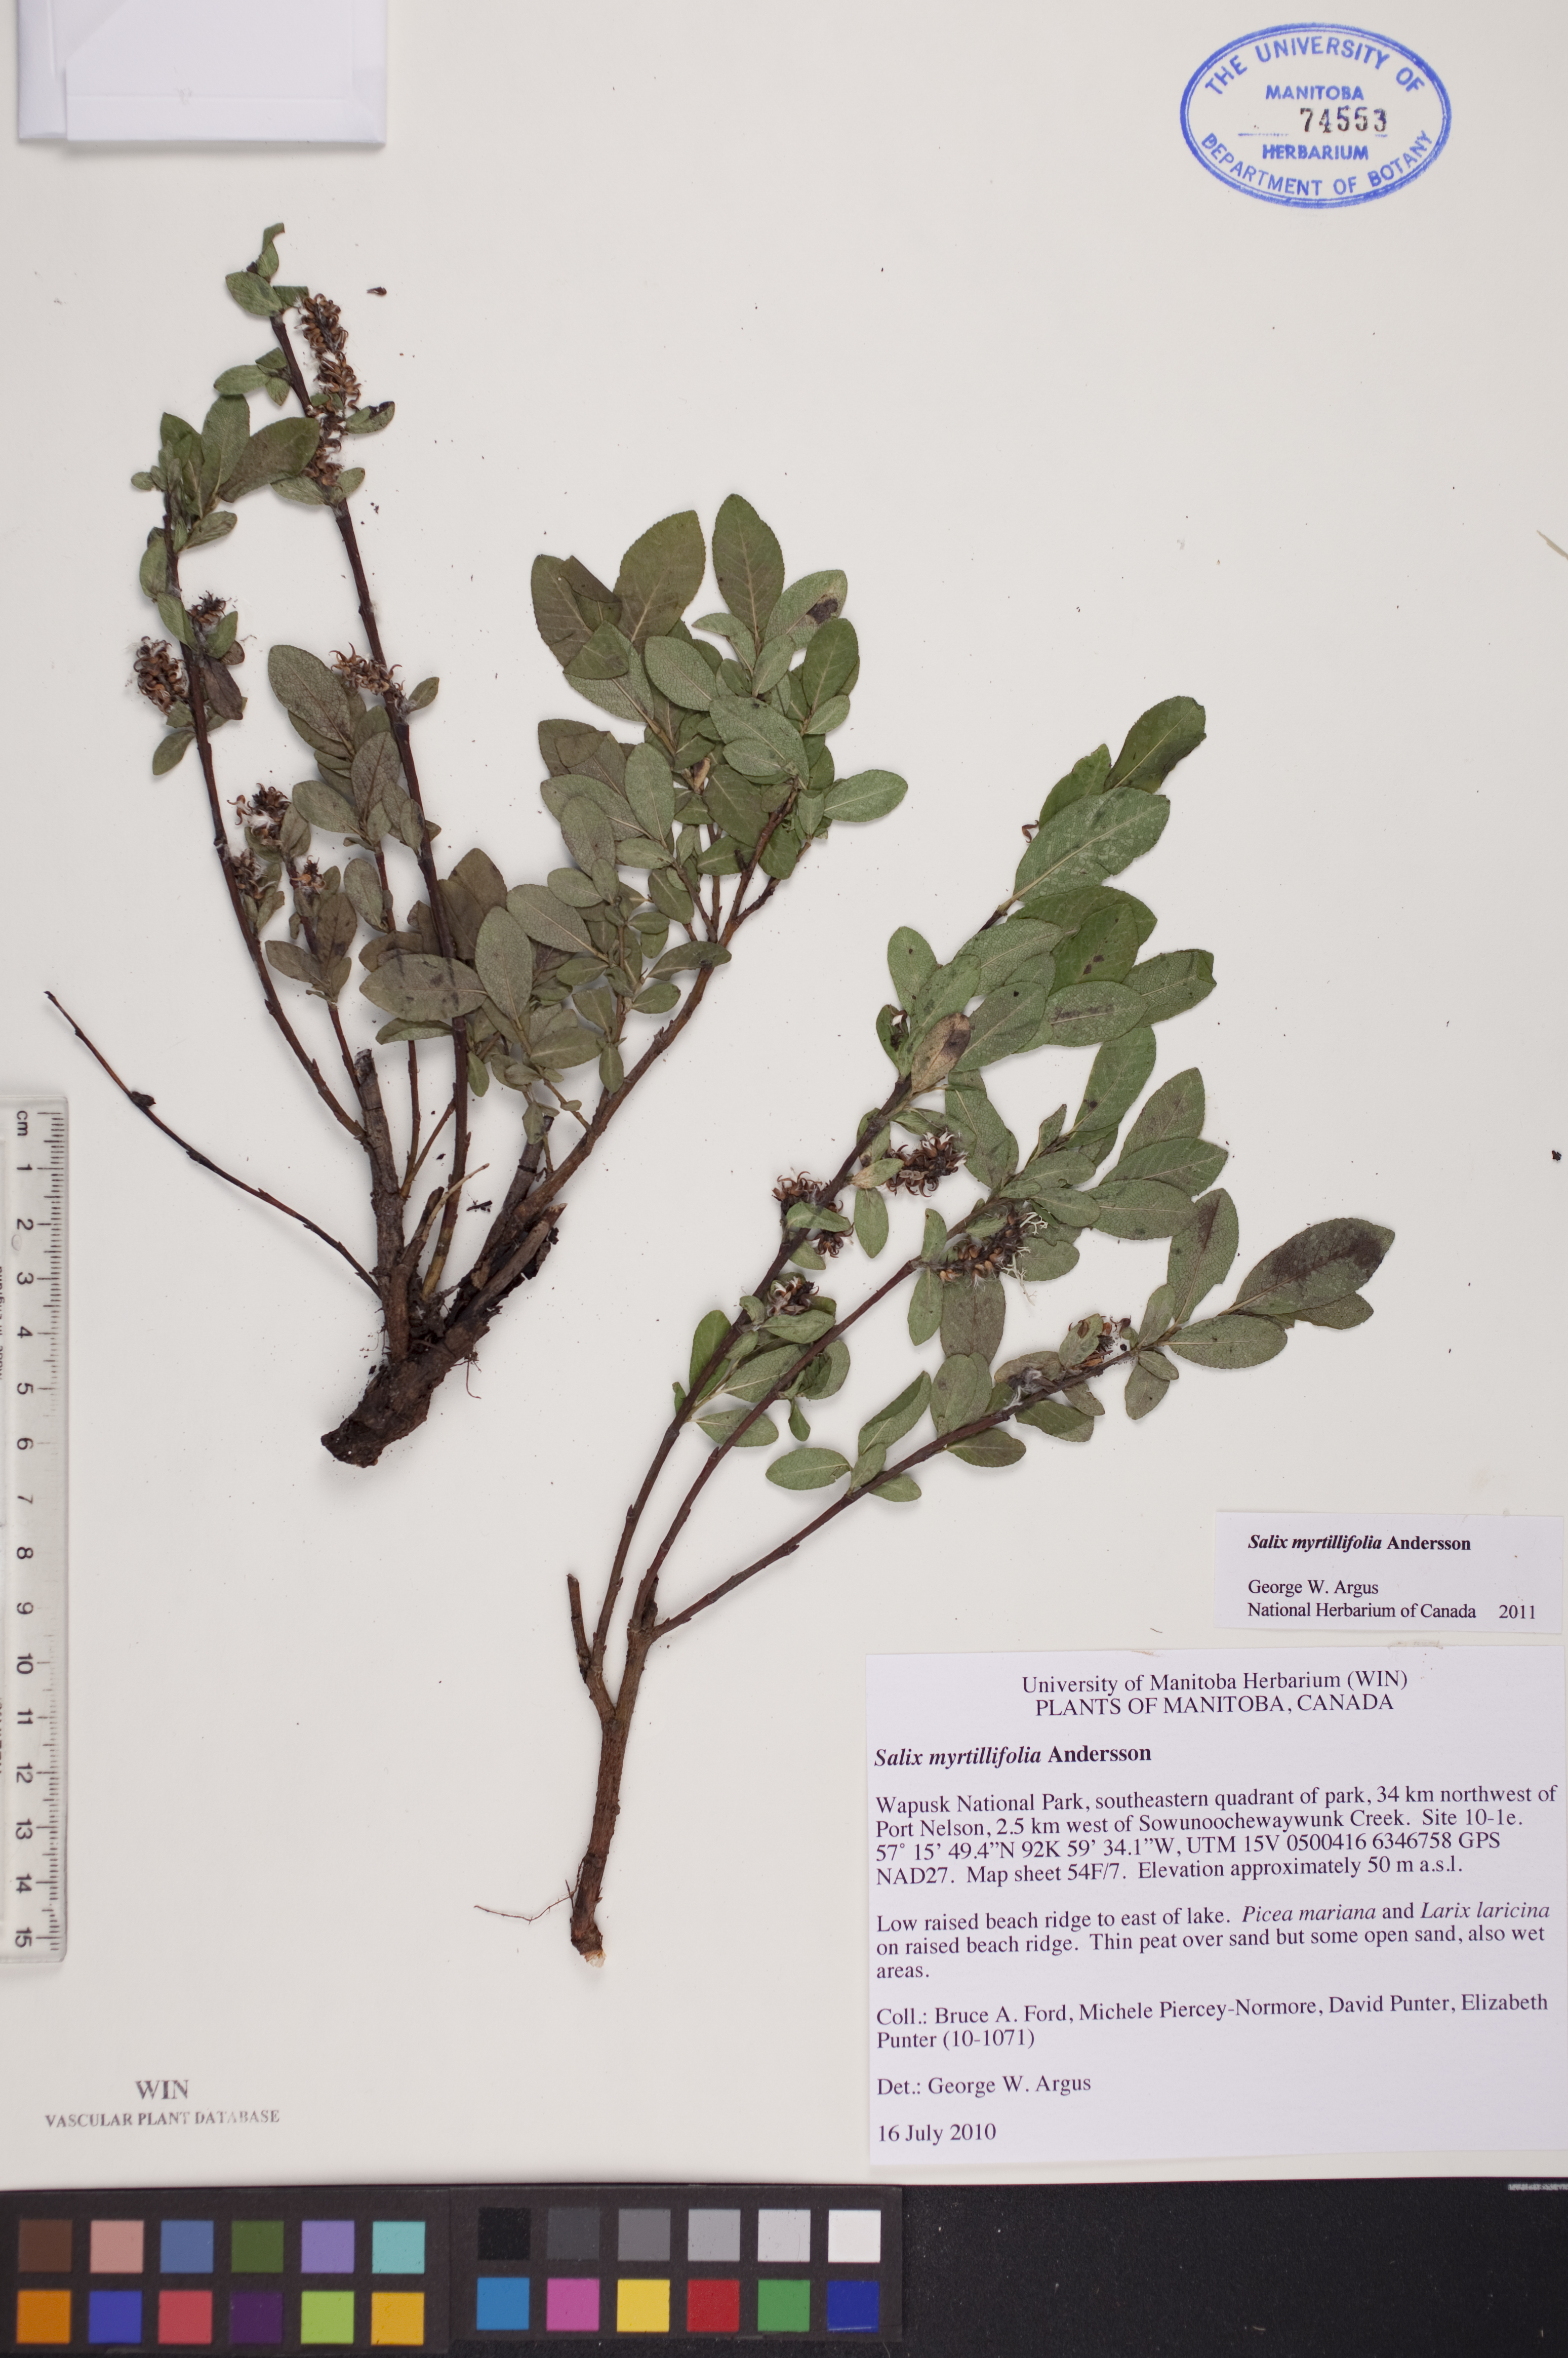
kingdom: Plantae
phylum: Tracheophyta
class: Magnoliopsida
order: Malpighiales
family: Salicaceae
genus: Salix
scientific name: Salix myrtillifolia
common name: Bilberry willow
